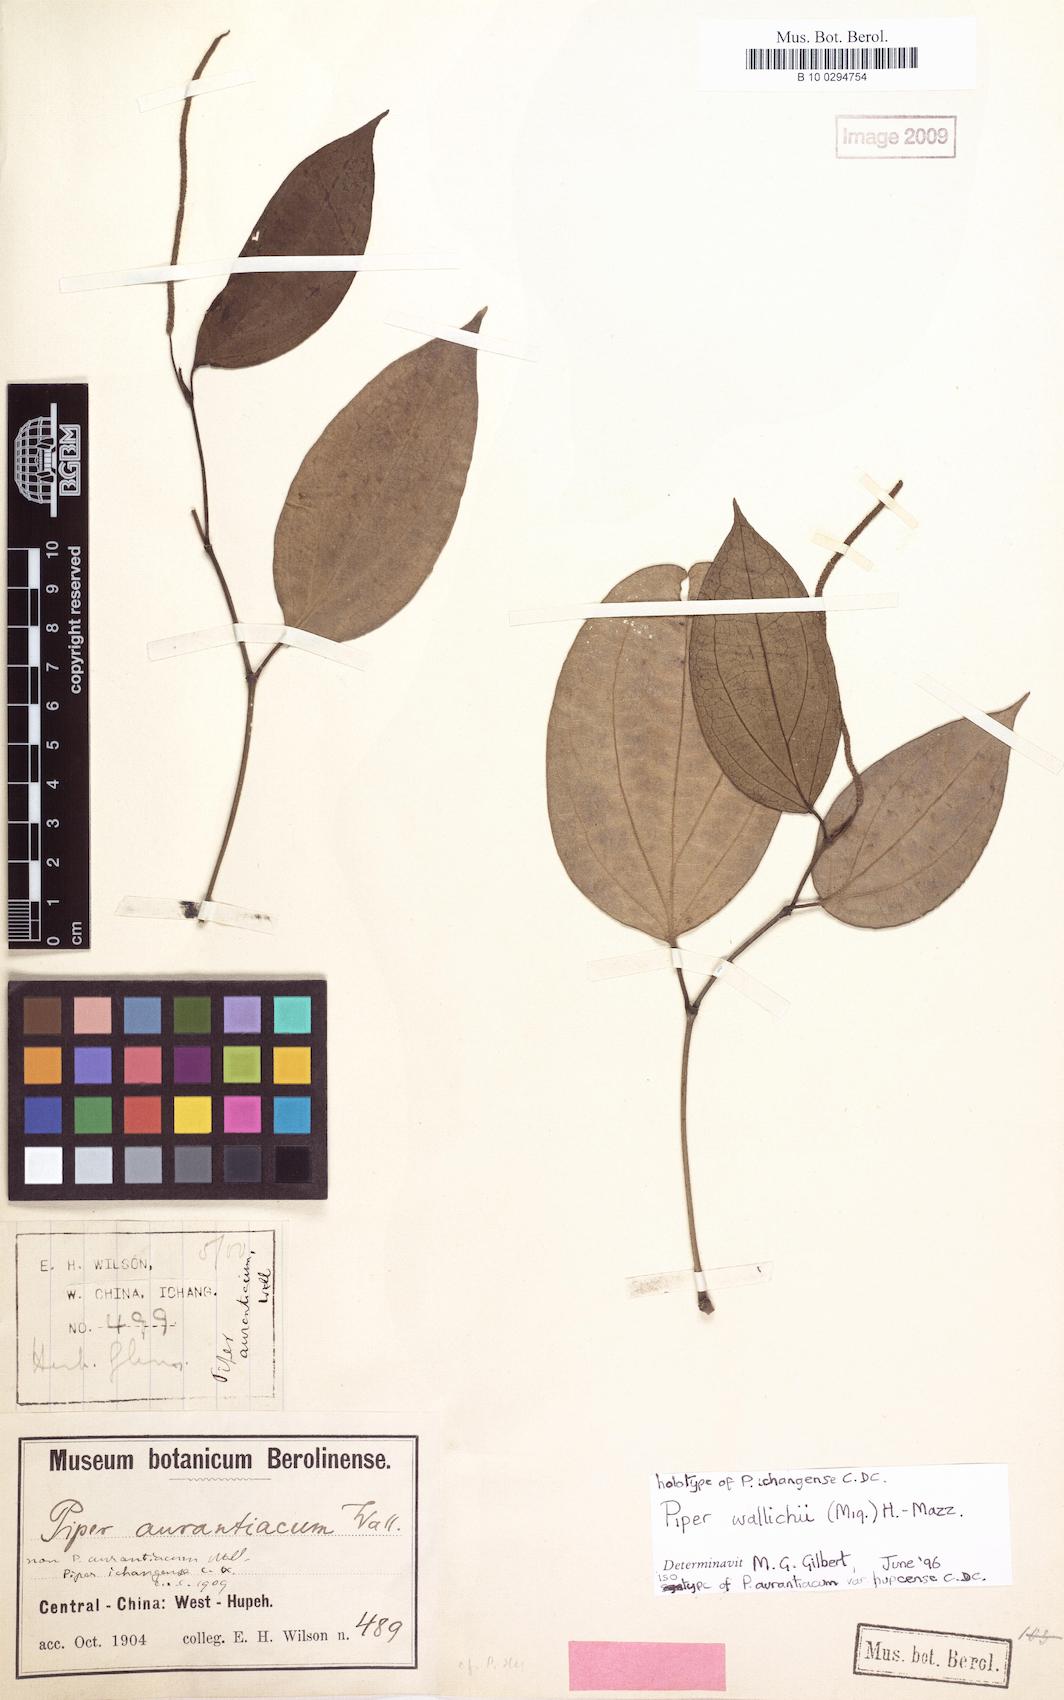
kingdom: Plantae
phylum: Tracheophyta
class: Magnoliopsida
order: Piperales
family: Piperaceae
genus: Piper
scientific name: Piper wallichii
